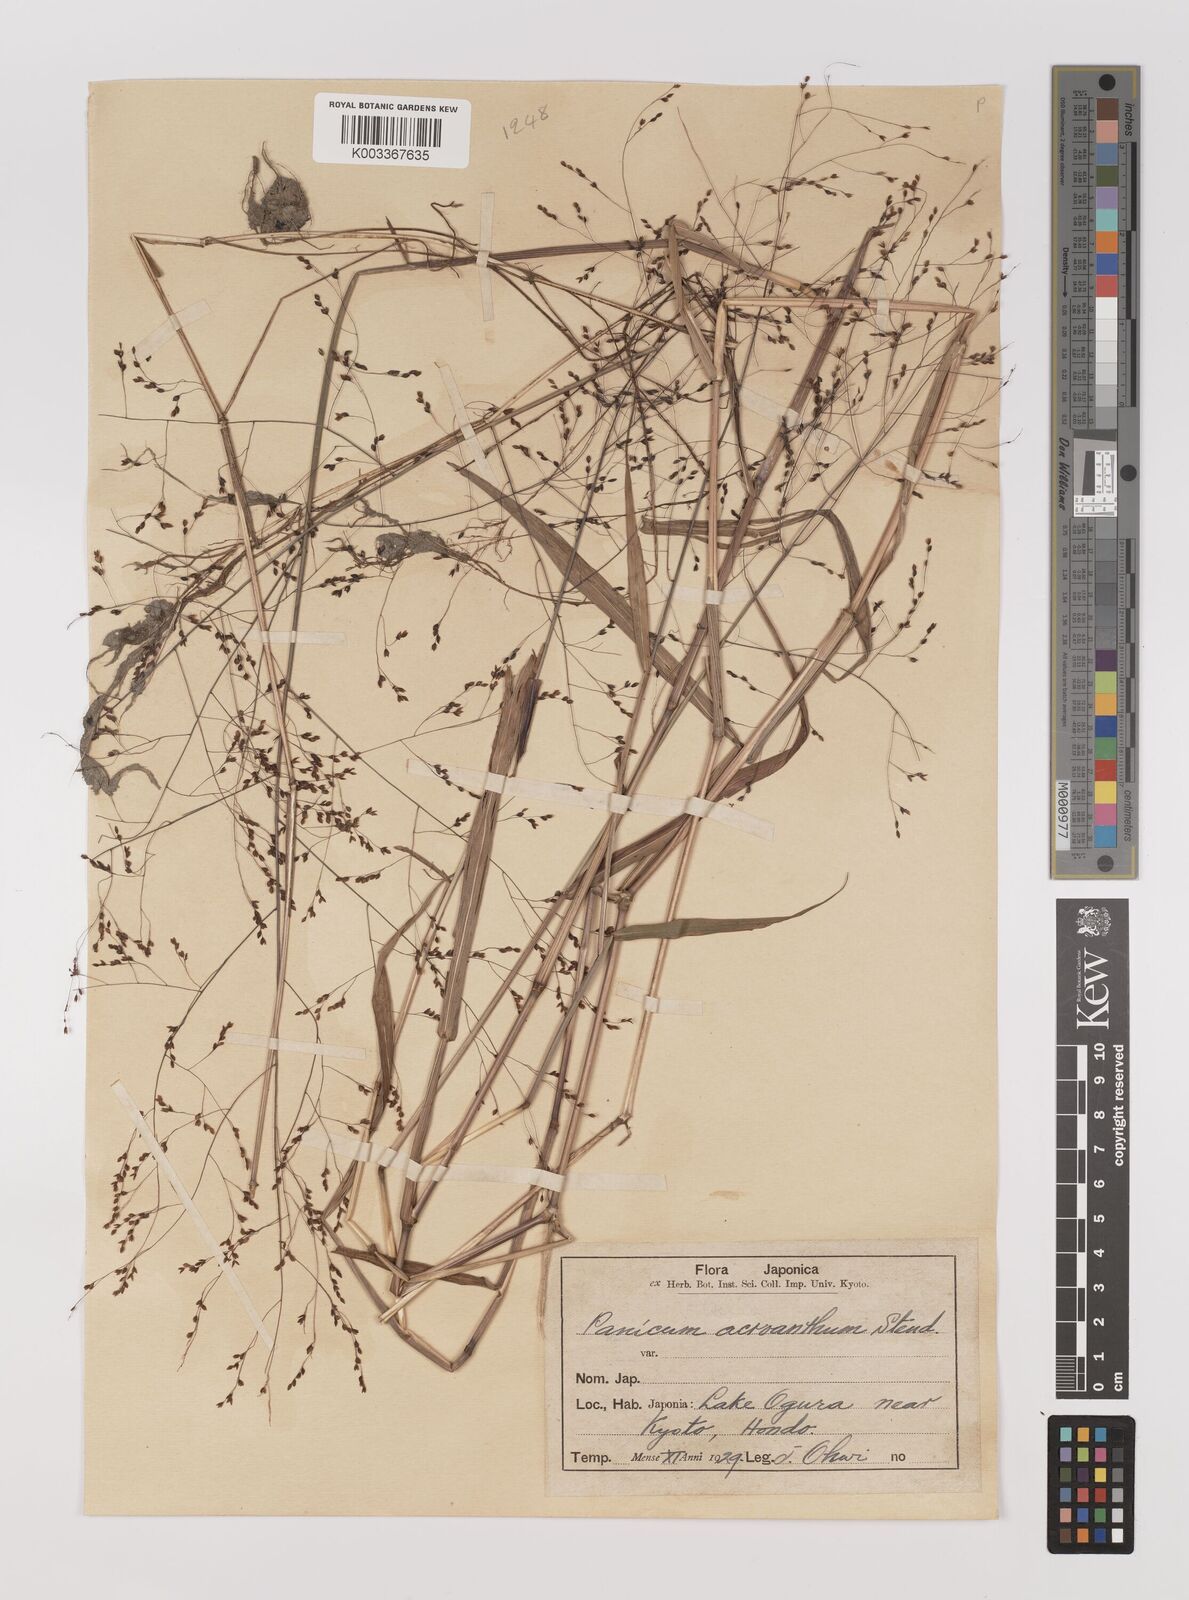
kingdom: Plantae
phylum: Tracheophyta
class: Liliopsida
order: Poales
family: Poaceae
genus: Panicum
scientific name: Panicum bisulcatum
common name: Japanese panicgrass
